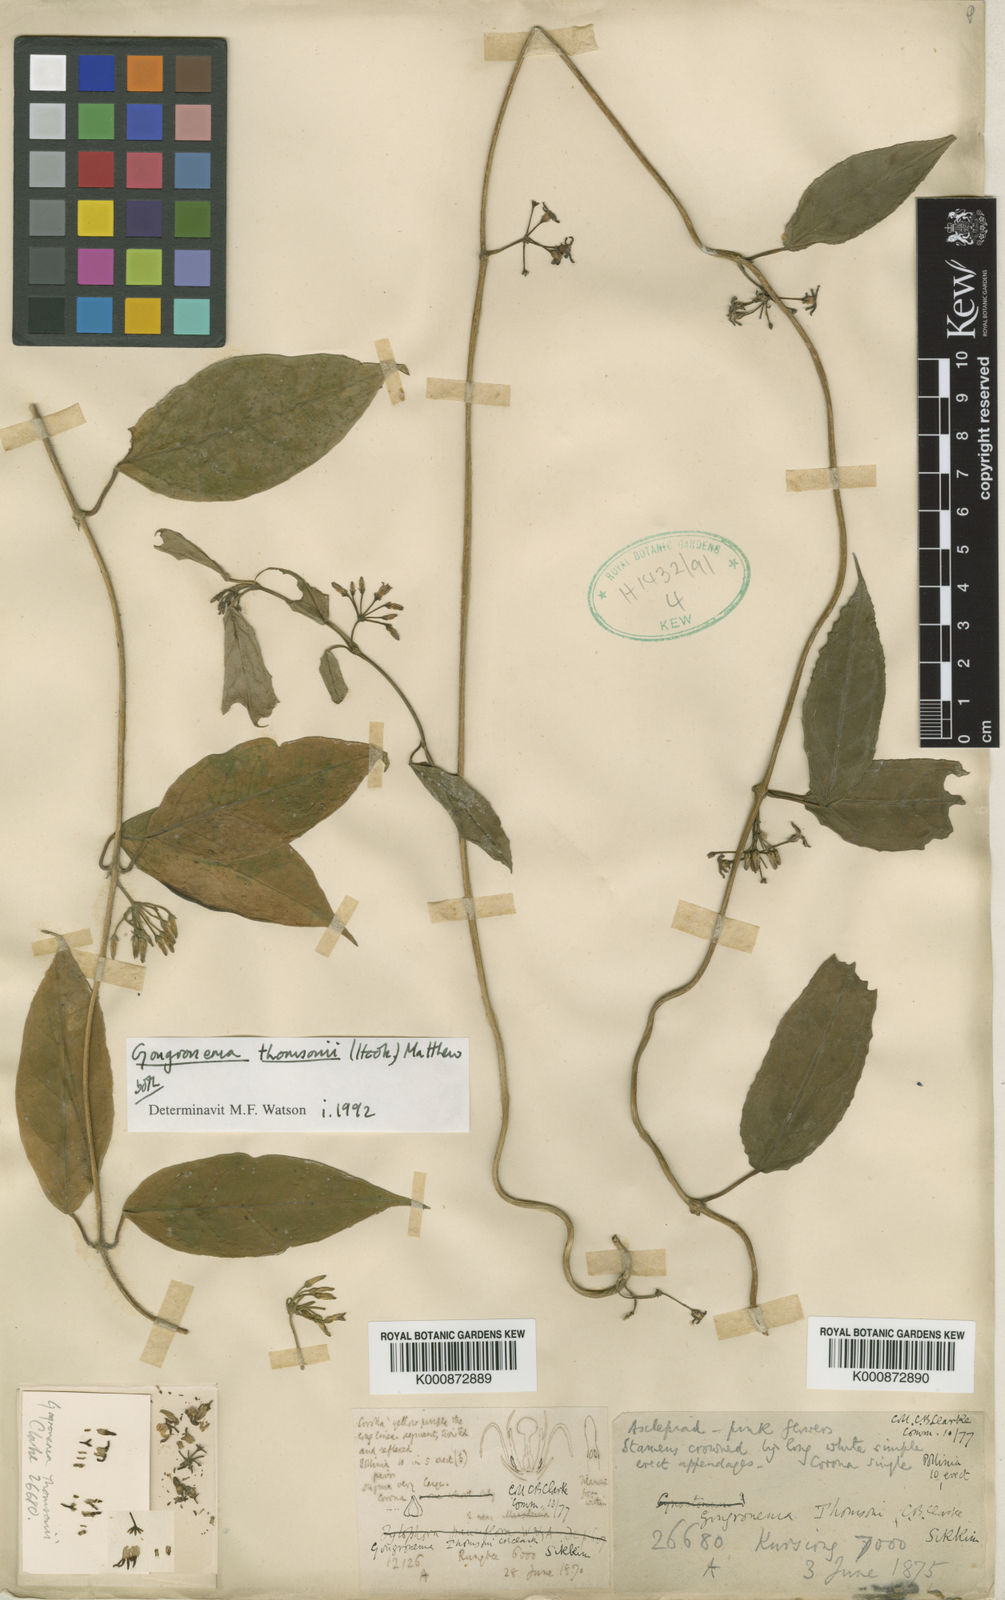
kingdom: Plantae
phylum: Tracheophyta
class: Magnoliopsida
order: Gentianales
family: Apocynaceae
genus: Gongronema
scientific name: Gongronema thomsonii
